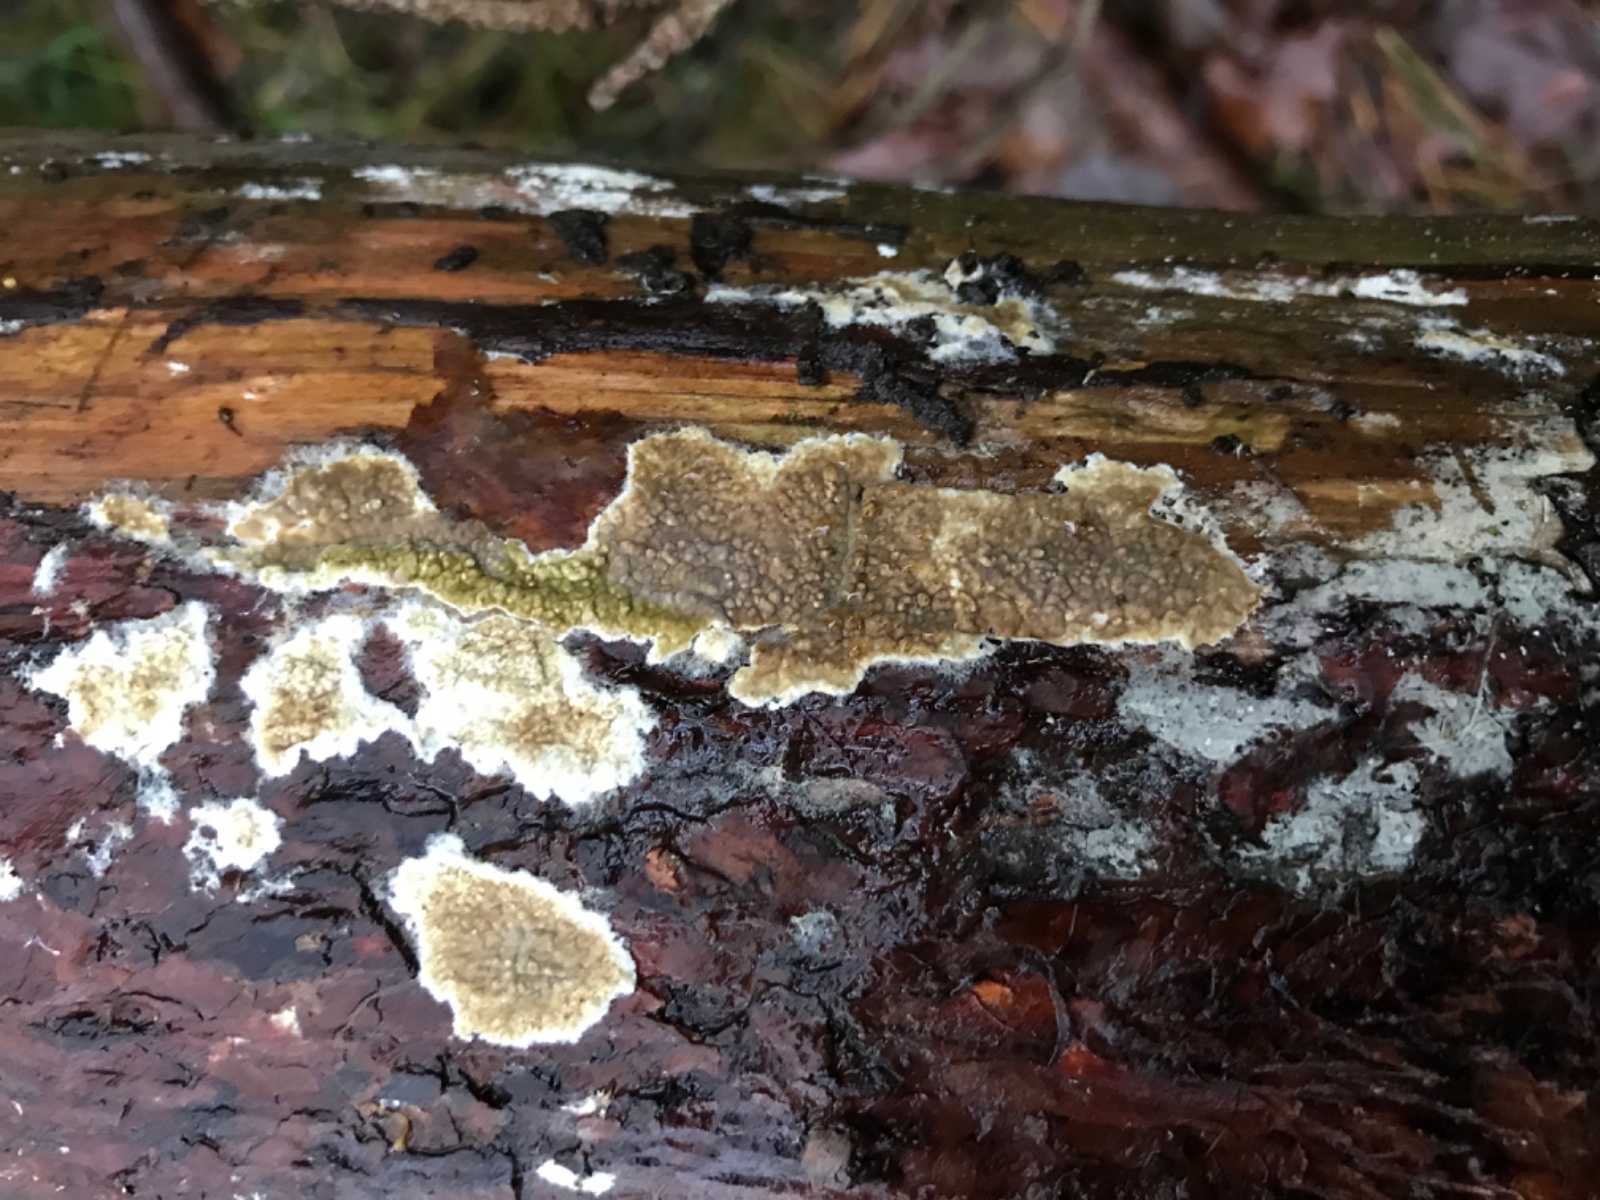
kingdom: Fungi
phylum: Basidiomycota
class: Agaricomycetes
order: Boletales
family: Coniophoraceae
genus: Coniophora
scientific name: Coniophora puteana
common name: gul tømmersvamp
